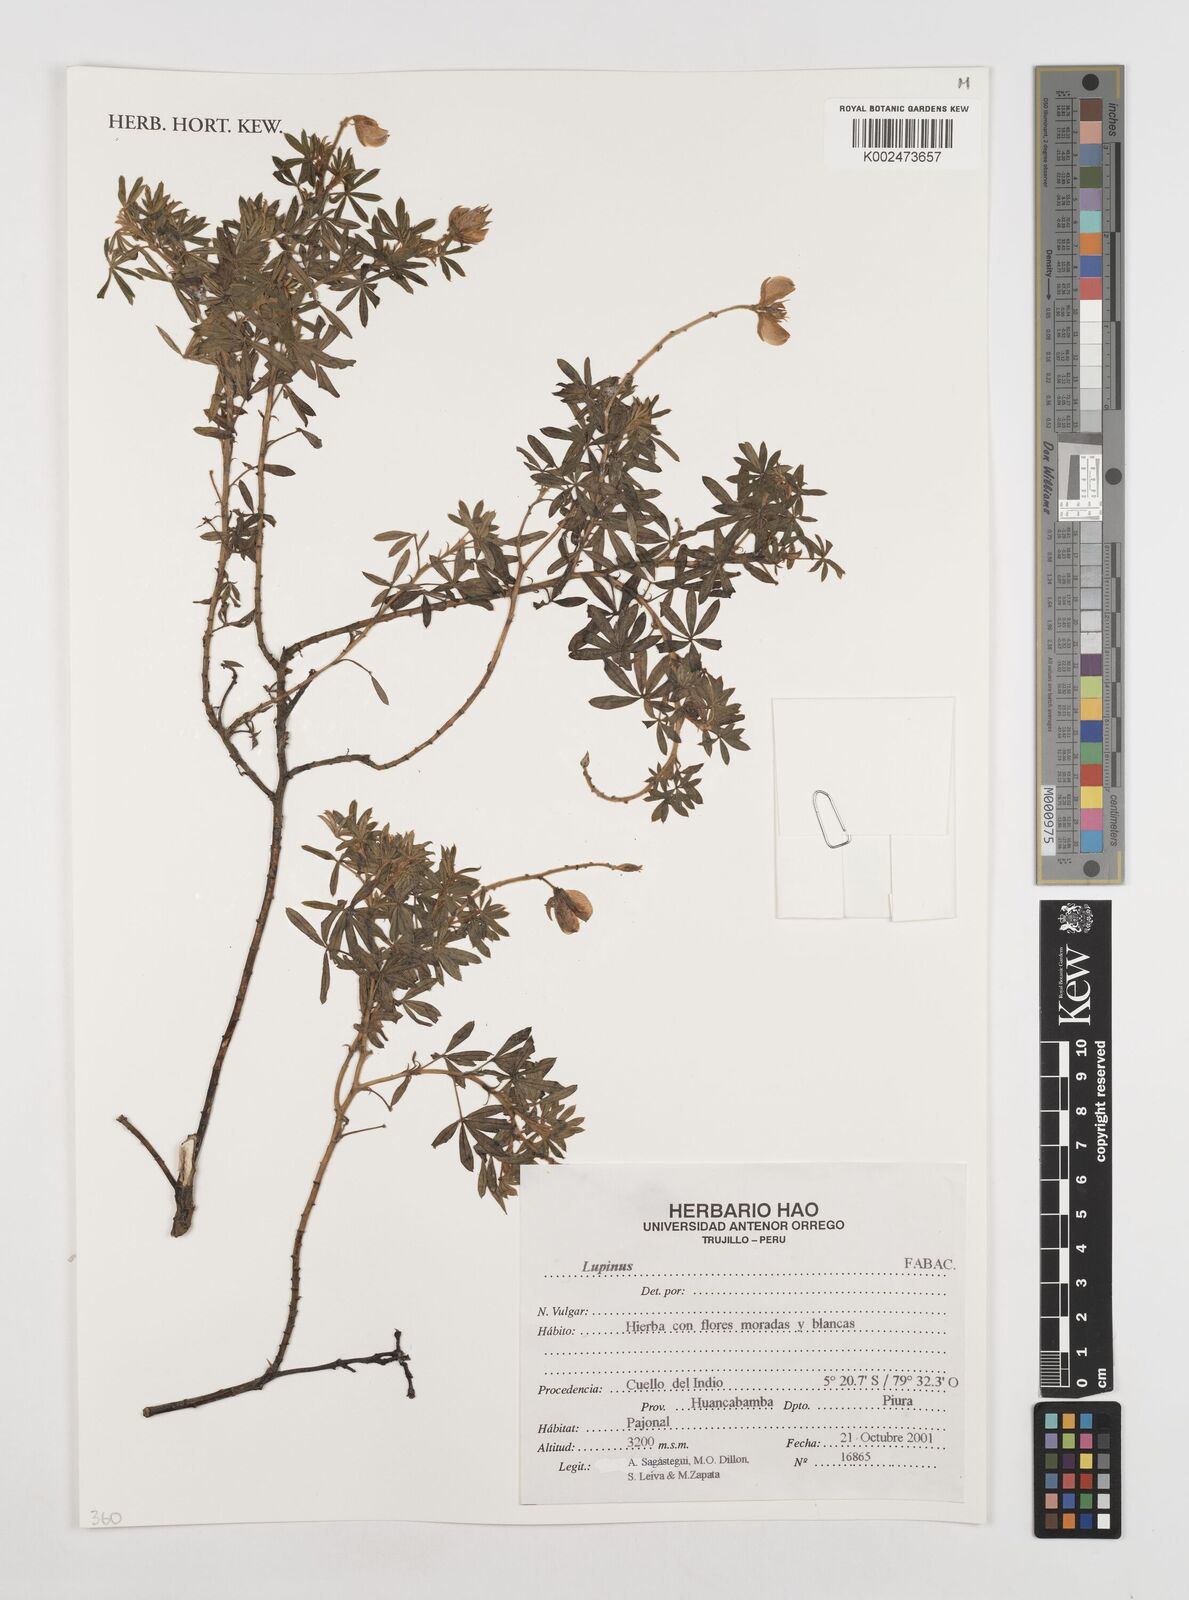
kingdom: Plantae
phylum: Tracheophyta
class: Magnoliopsida
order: Fabales
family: Fabaceae
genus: Lupinus
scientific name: Lupinus
